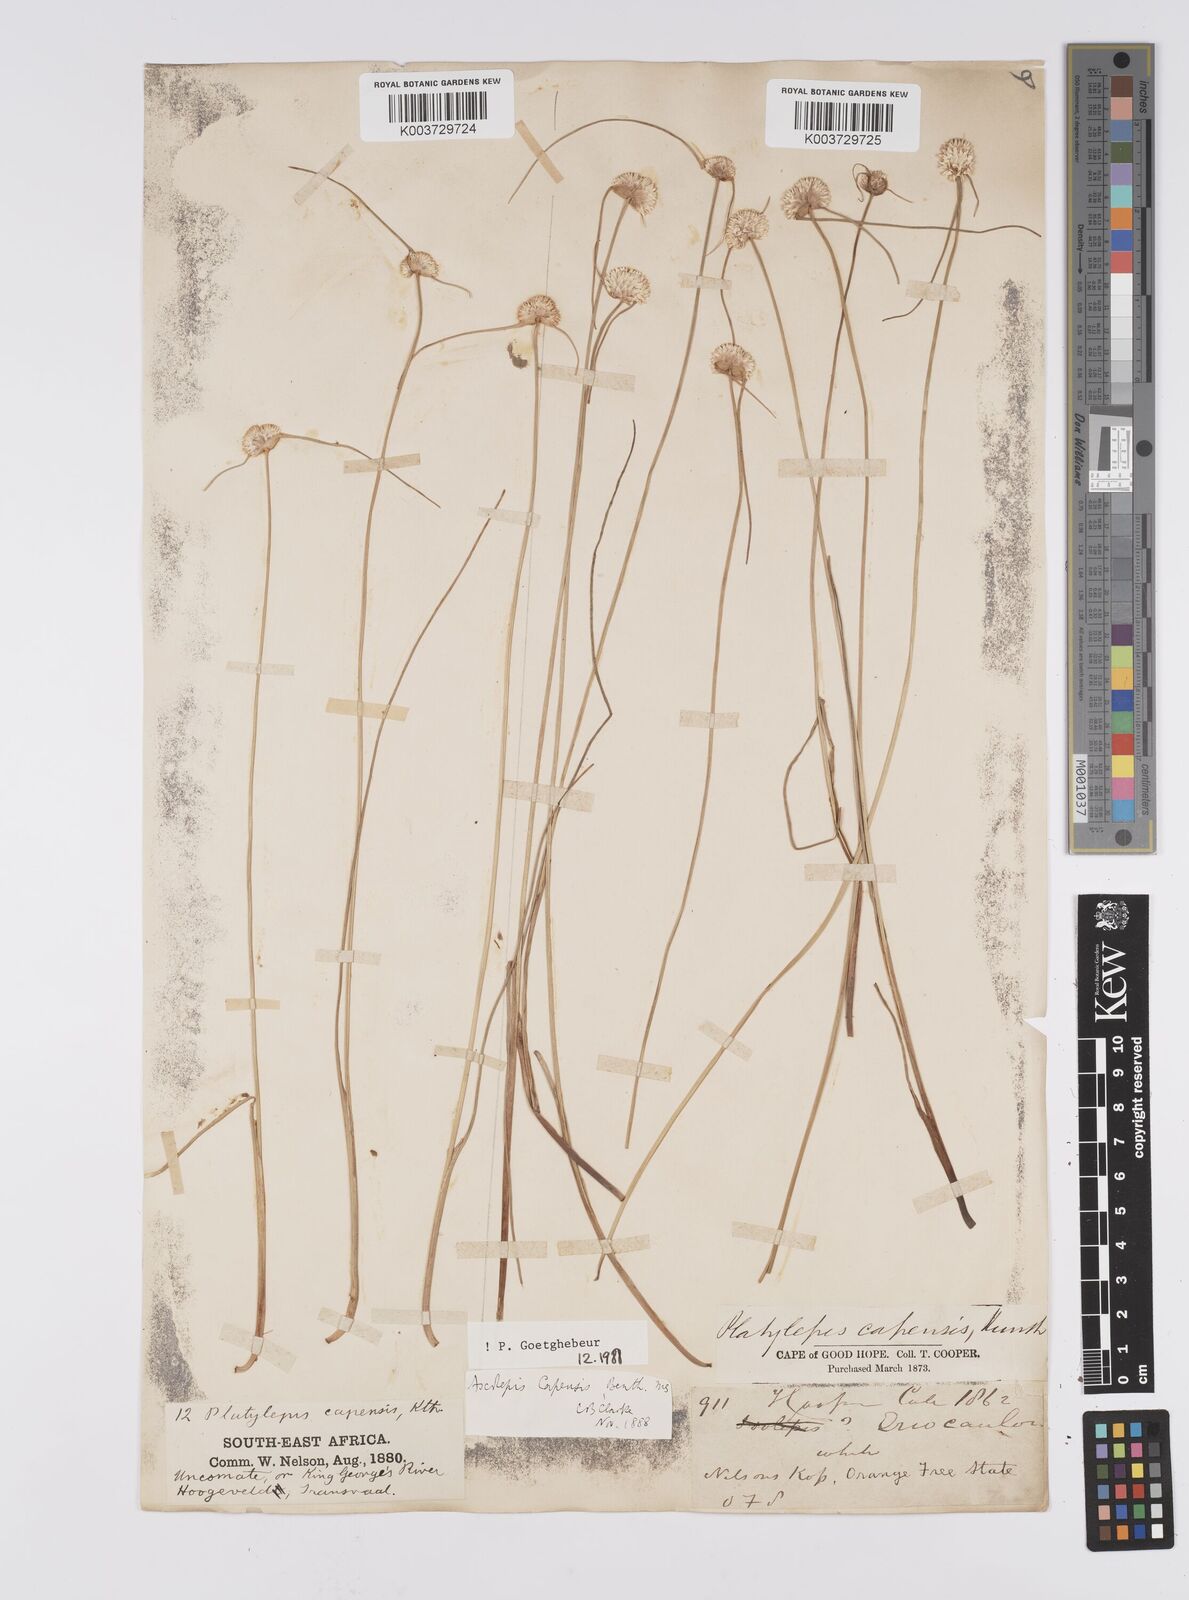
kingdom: Plantae
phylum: Tracheophyta
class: Liliopsida
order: Poales
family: Cyperaceae
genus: Cyperus
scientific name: Cyperus capensis
